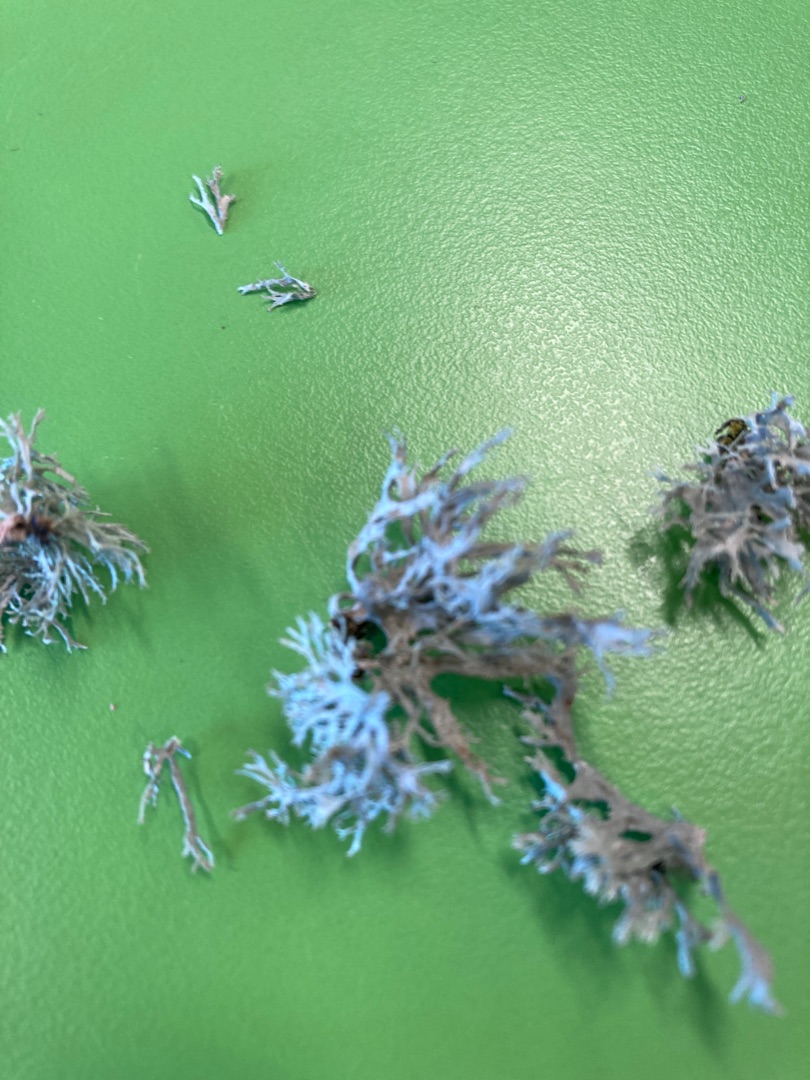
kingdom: Fungi
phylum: Ascomycota
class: Lecanoromycetes
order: Lecanorales
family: Ramalinaceae
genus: Ramalina
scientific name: Ramalina farinacea
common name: Melet grenlav
